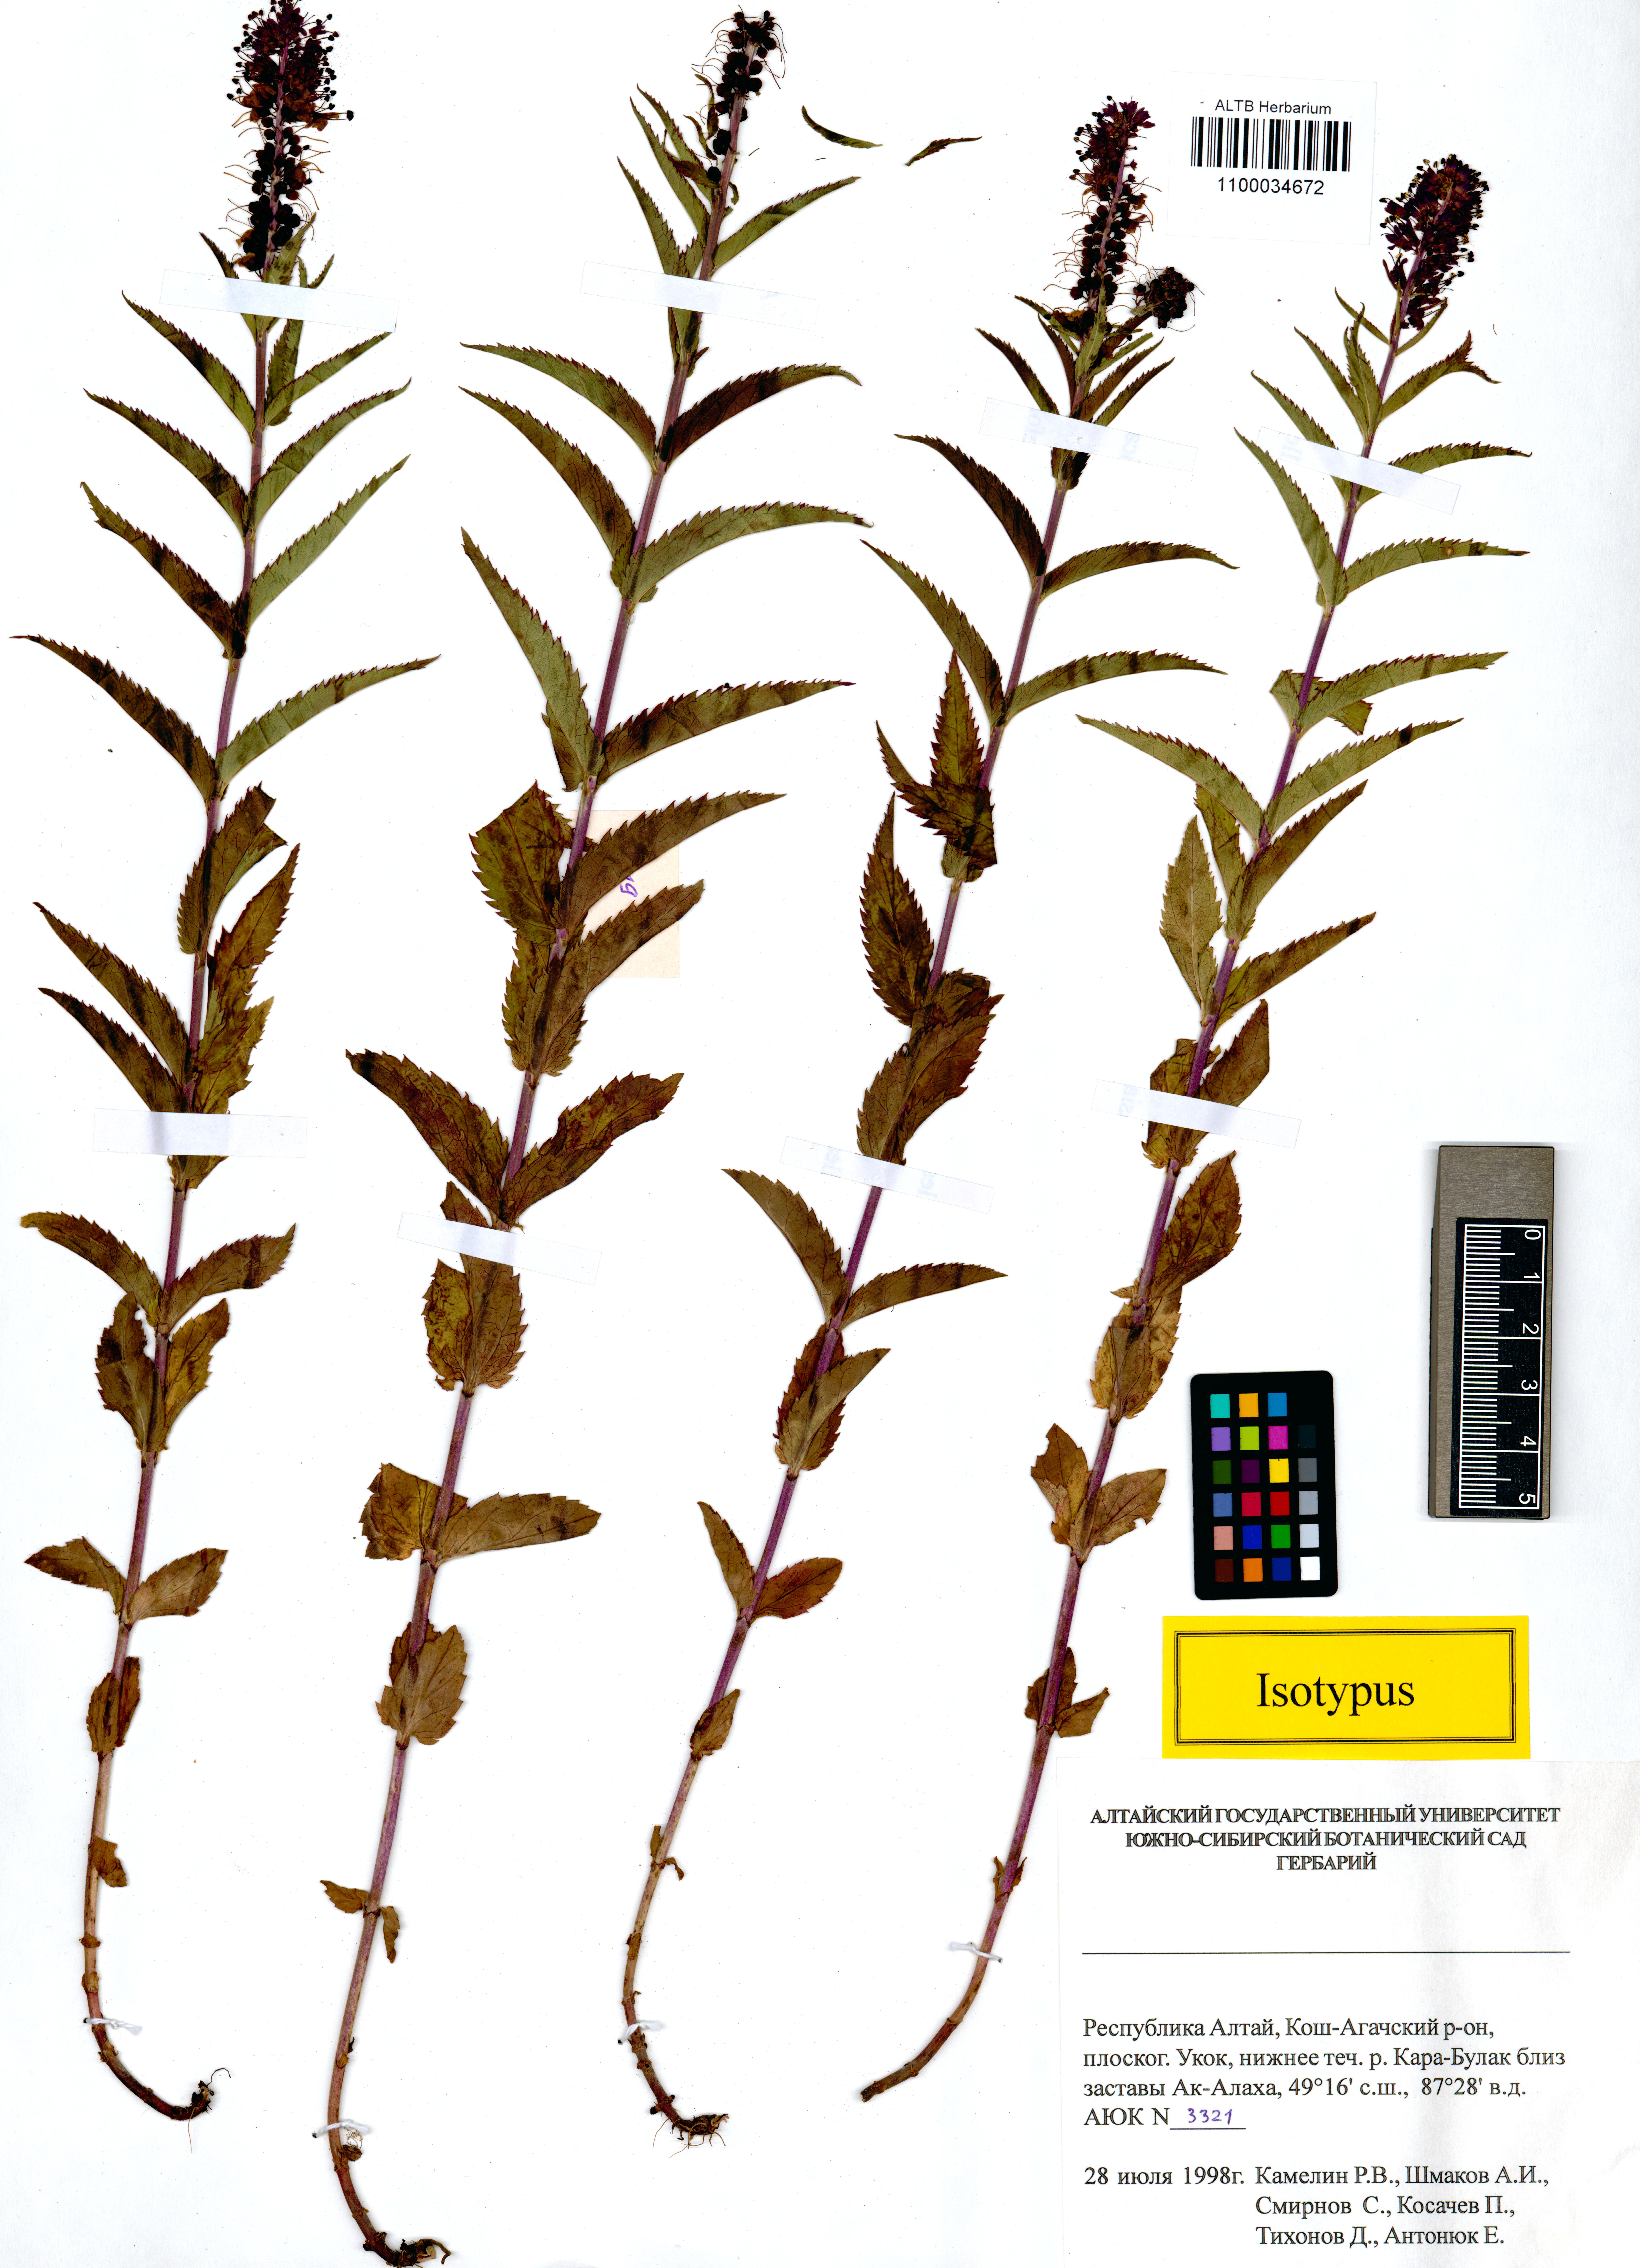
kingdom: Plantae
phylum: Tracheophyta
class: Magnoliopsida
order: Lamiales
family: Plantaginaceae
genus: Veronica
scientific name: Veronica schmakovii
